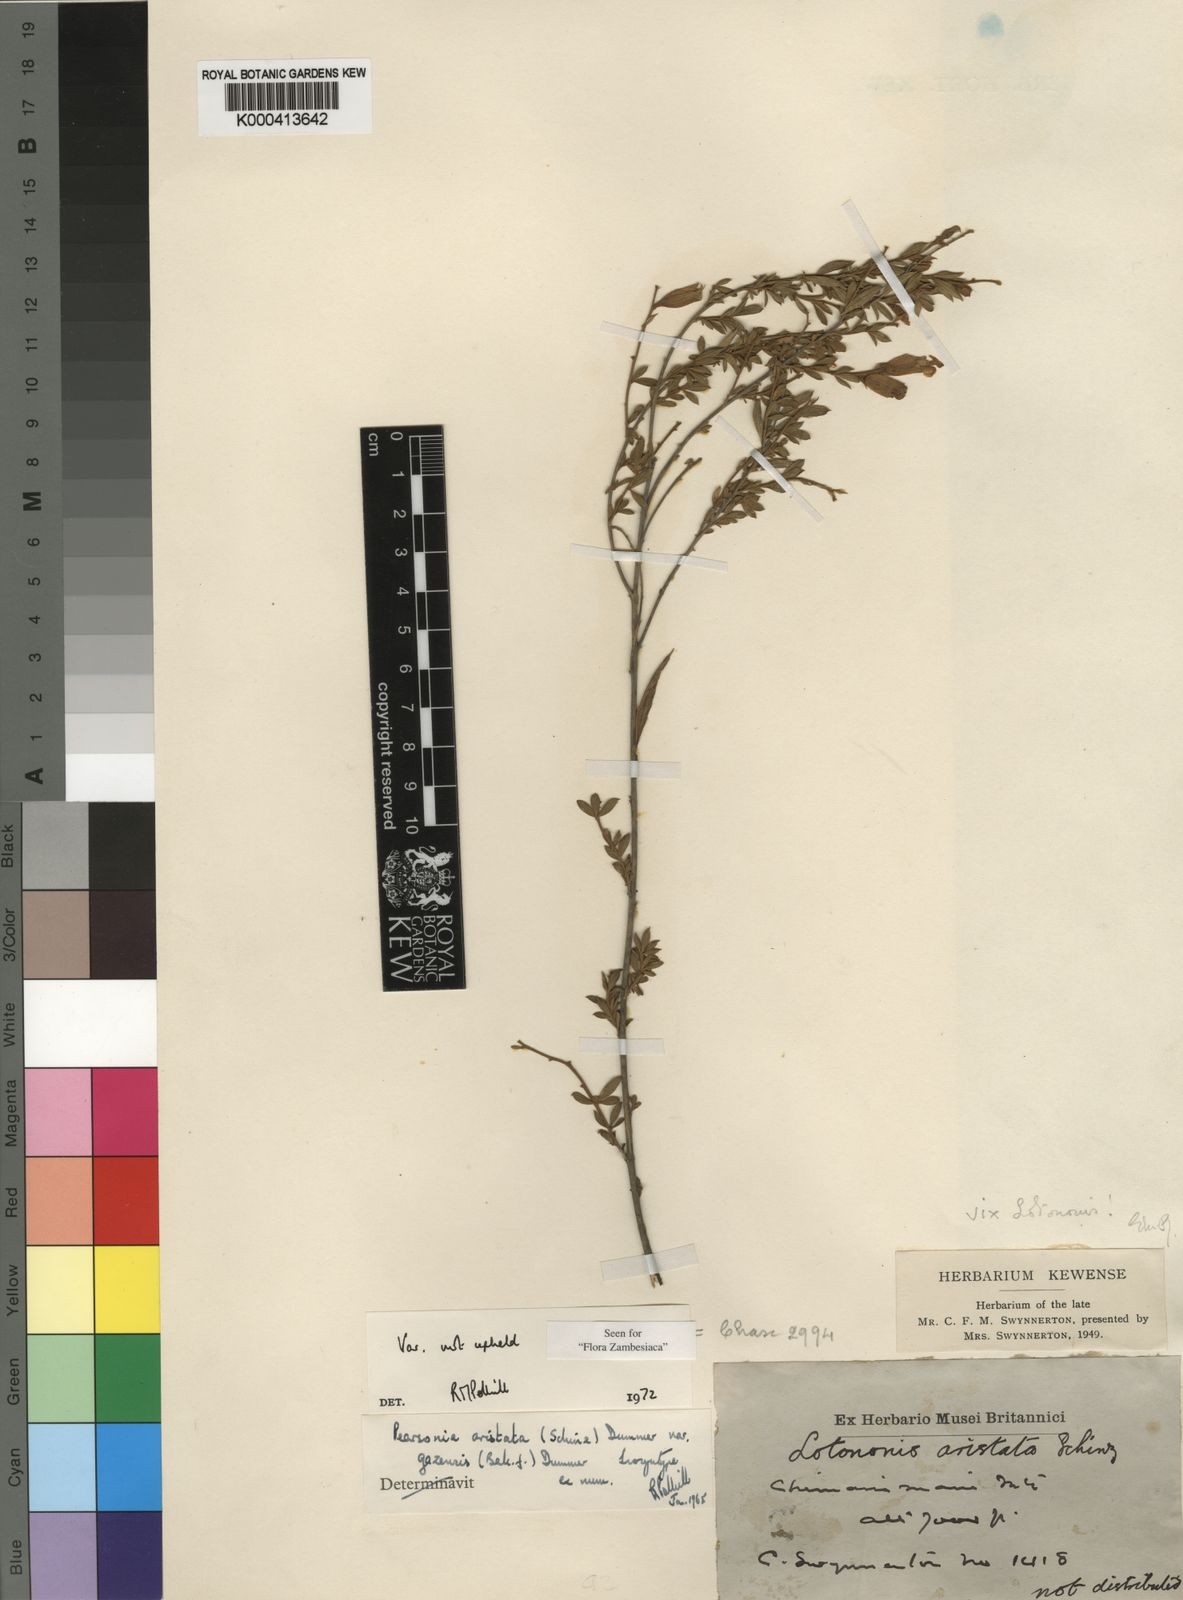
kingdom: Plantae
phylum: Tracheophyta
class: Magnoliopsida
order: Fabales
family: Fabaceae
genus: Pearsonia
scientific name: Pearsonia aristata
